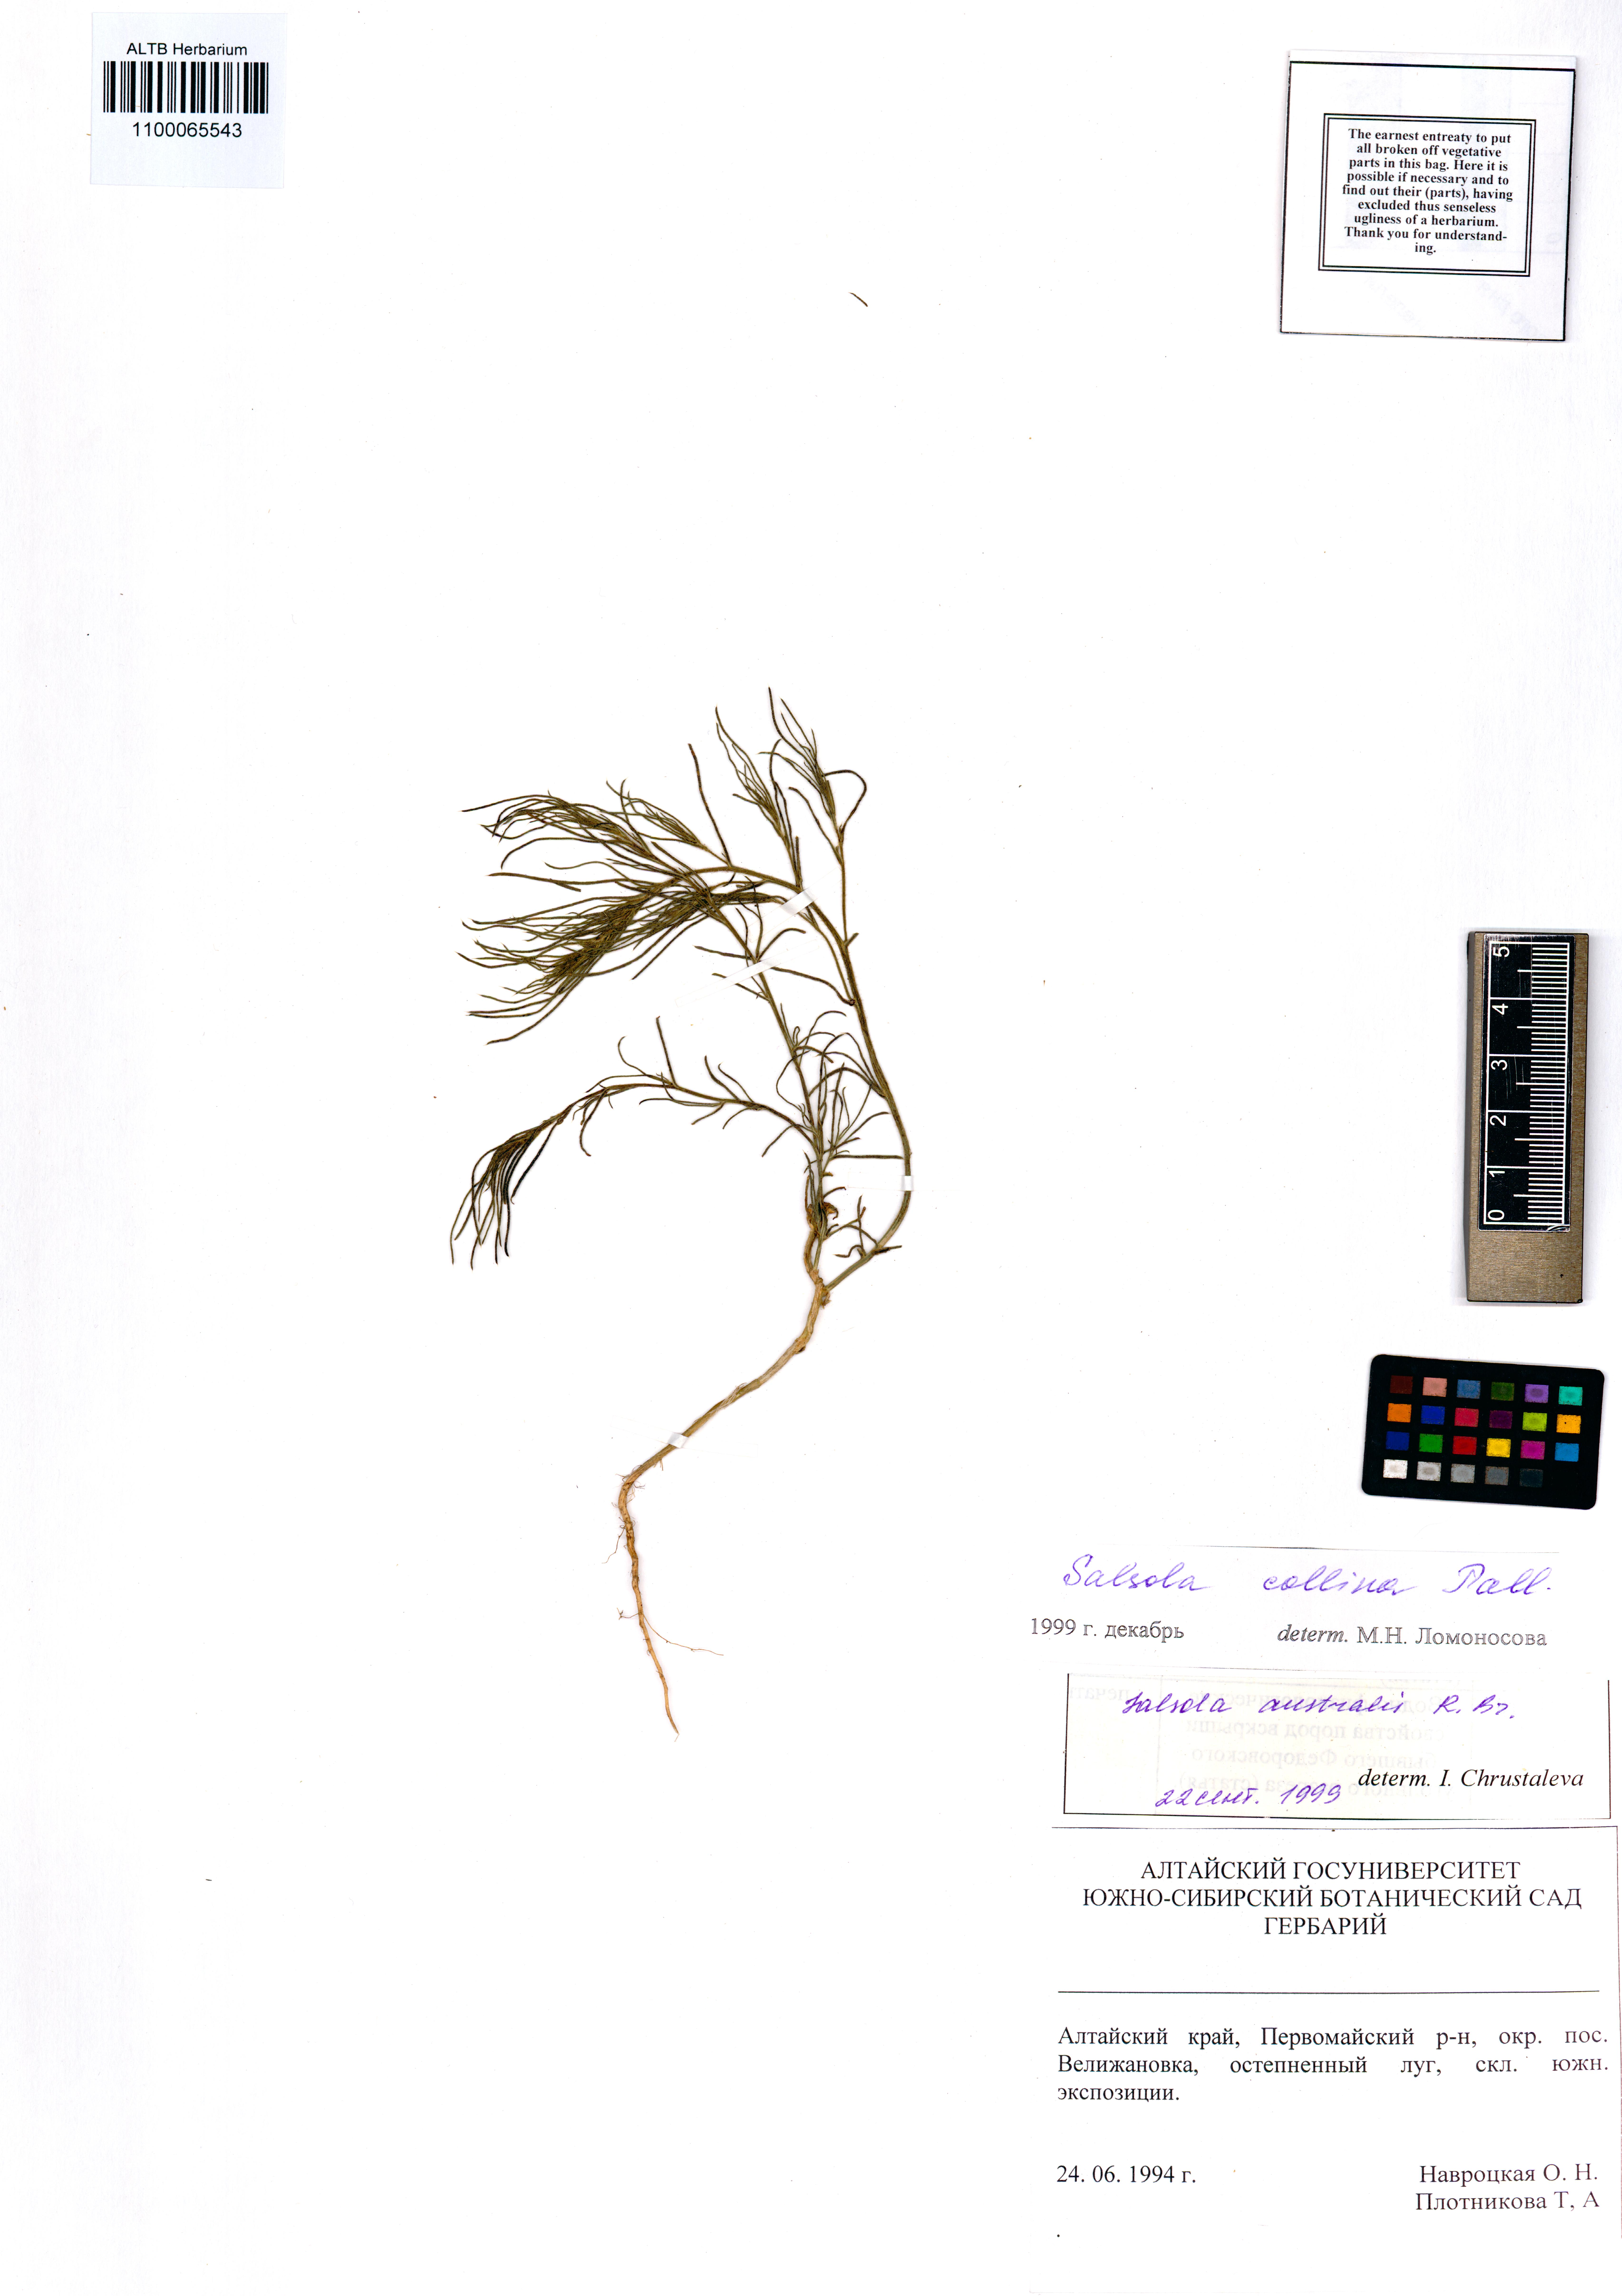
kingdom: Plantae
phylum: Tracheophyta
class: Magnoliopsida
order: Caryophyllales
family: Amaranthaceae
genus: Salsola
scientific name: Salsola collina
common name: Tumbleweed
